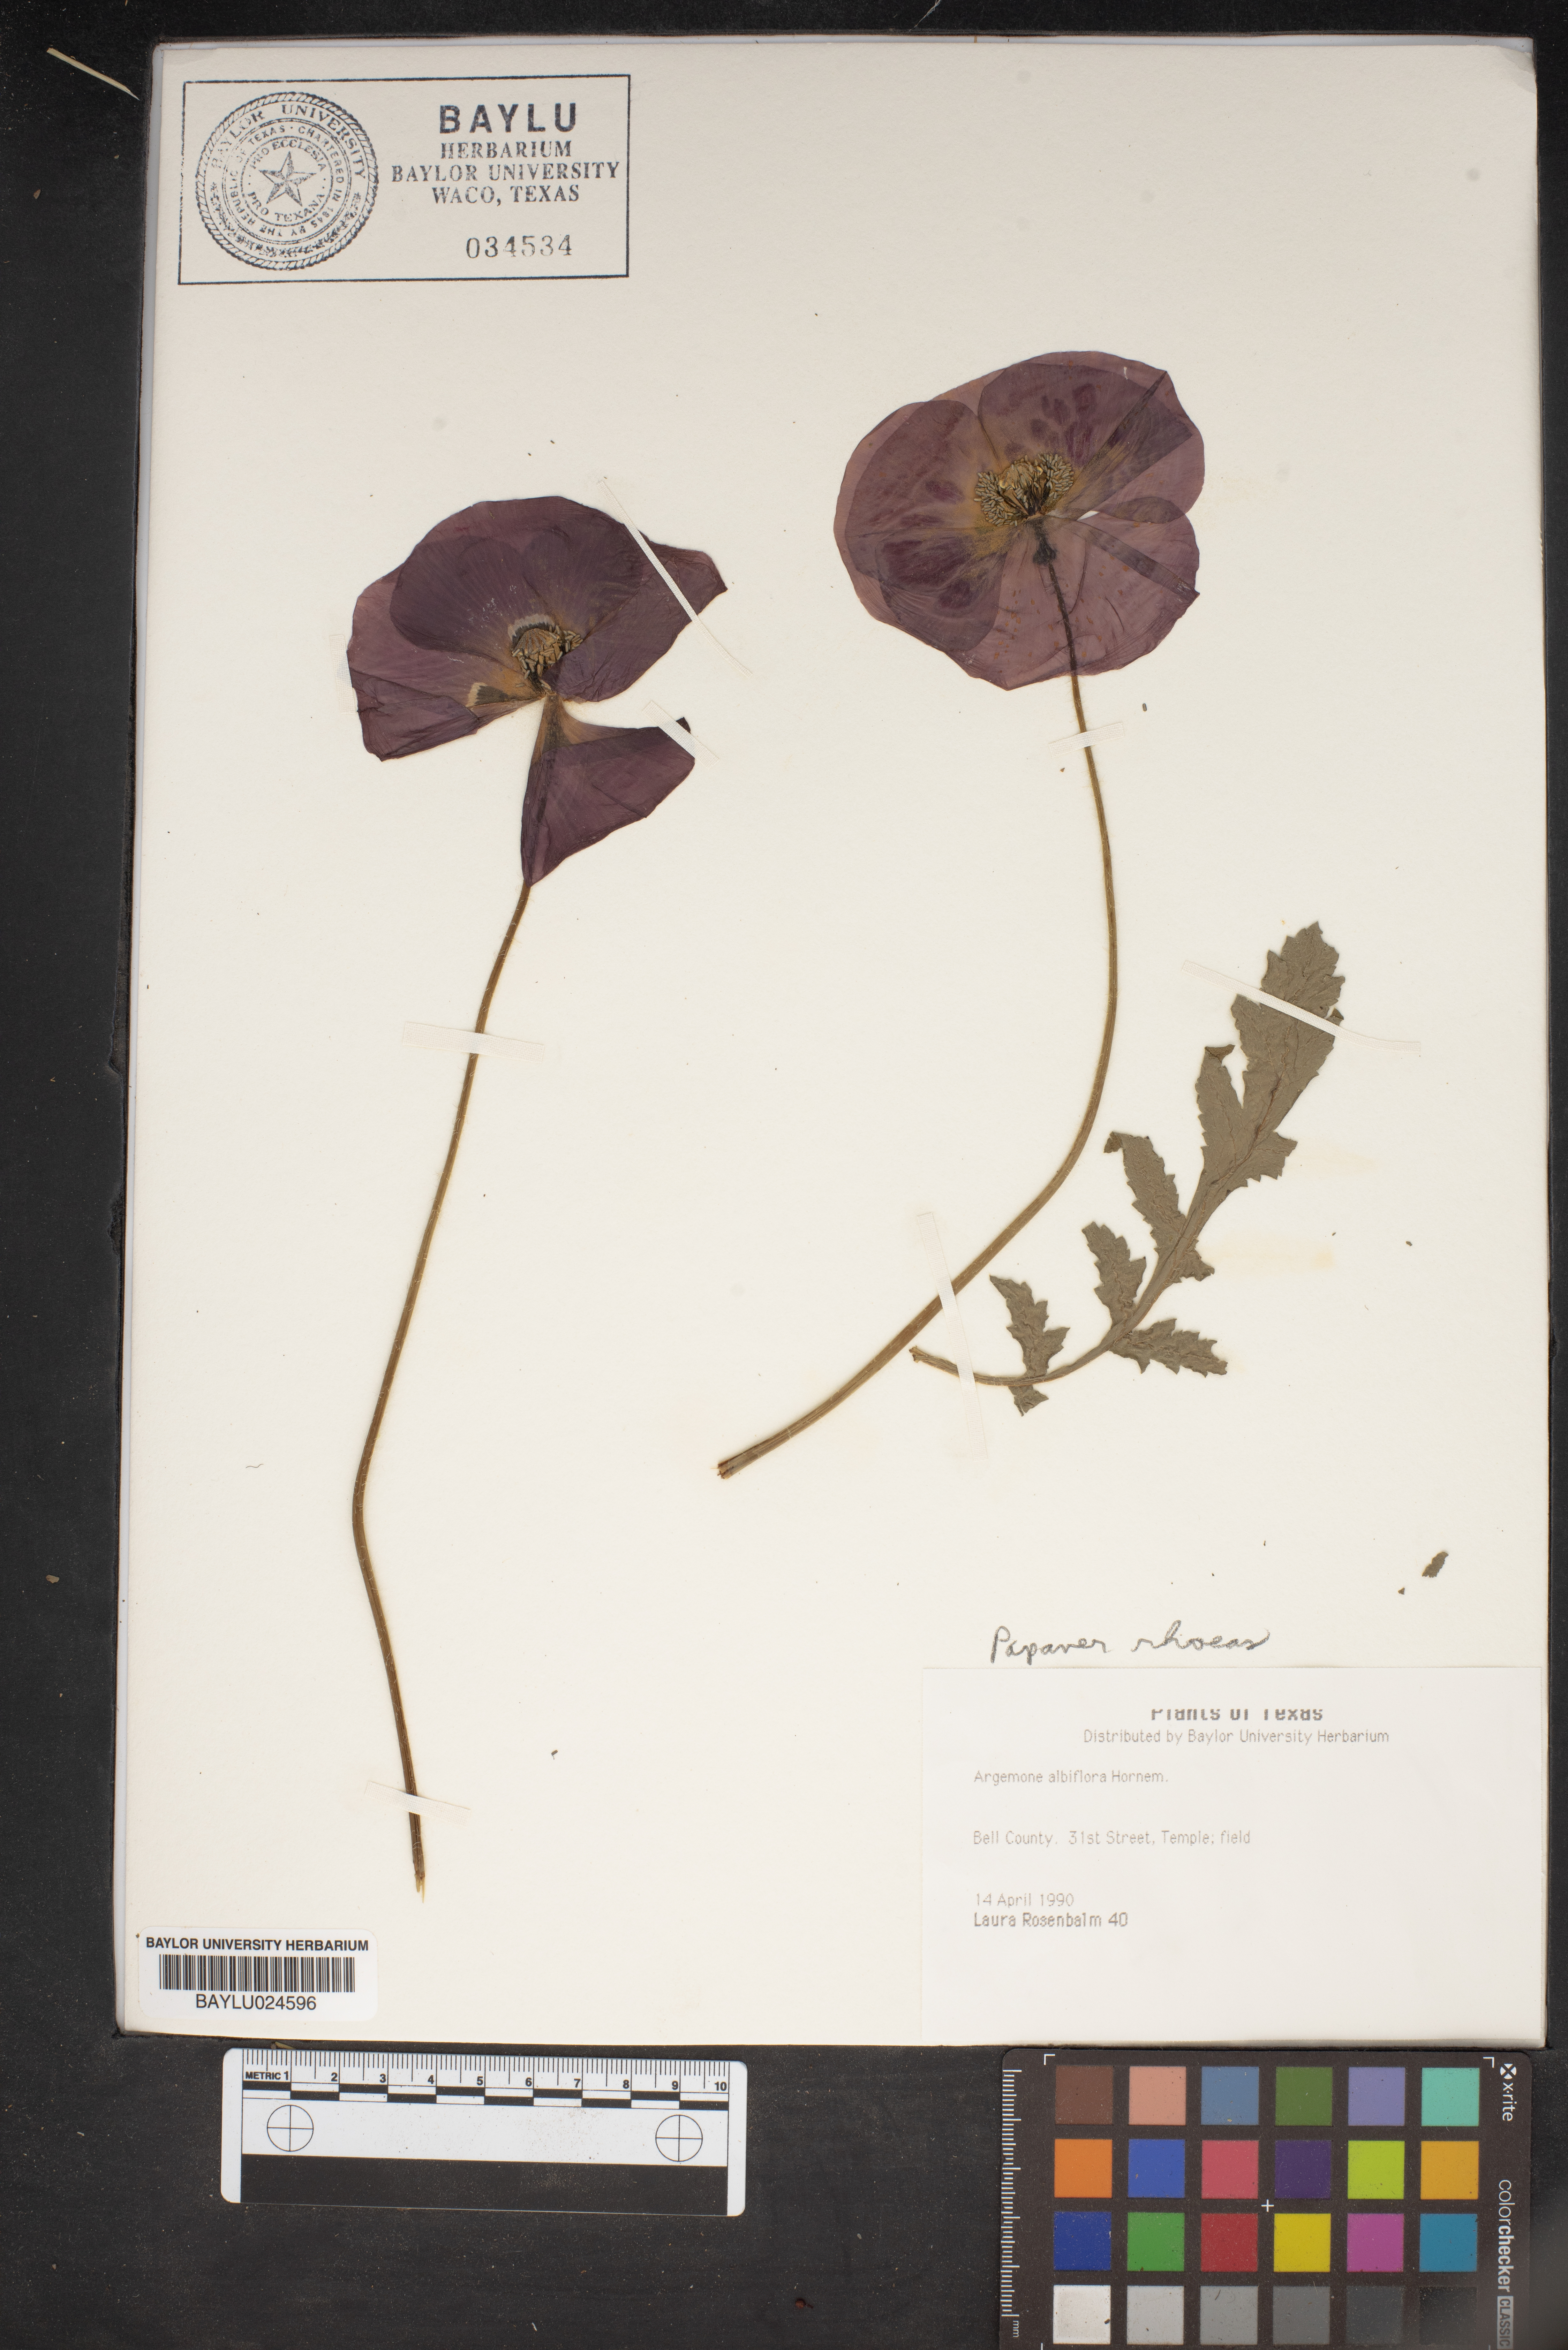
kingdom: Plantae
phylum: Tracheophyta
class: Magnoliopsida
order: Ranunculales
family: Papaveraceae
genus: Argemone
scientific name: Argemone albiflora
